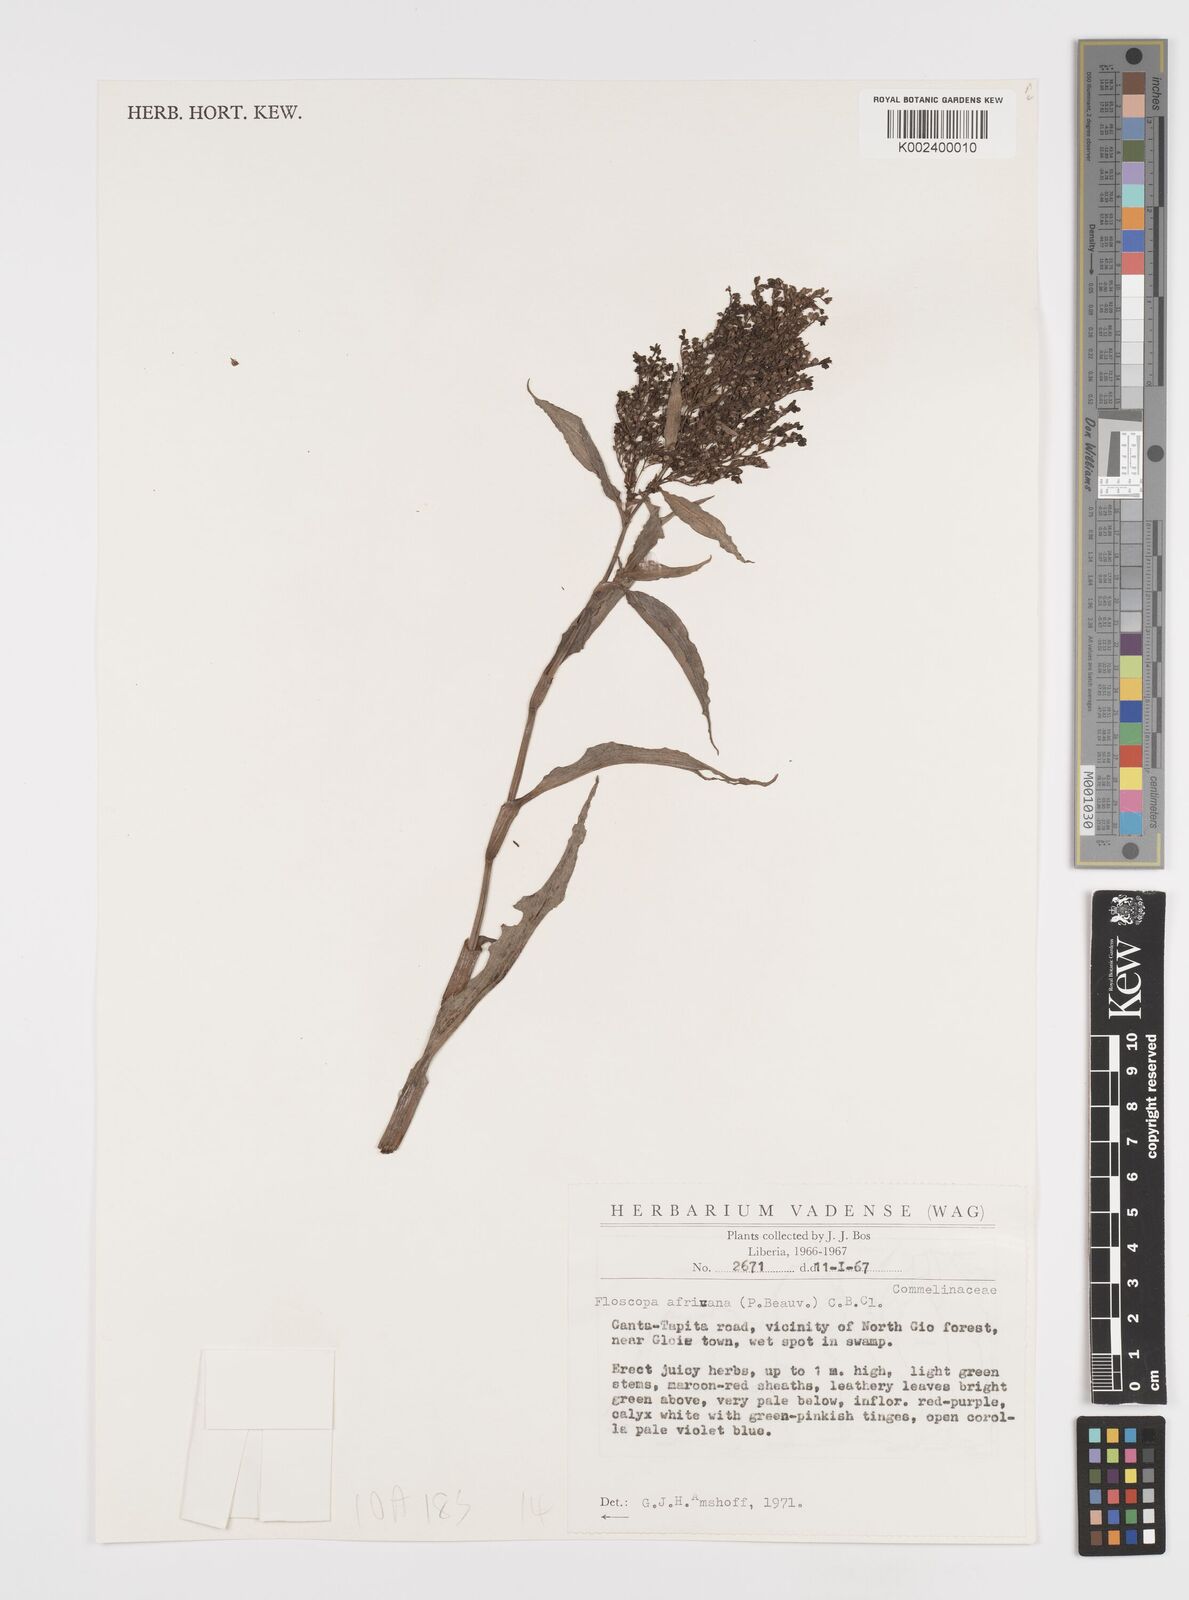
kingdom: Plantae
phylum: Tracheophyta
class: Liliopsida
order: Commelinales
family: Commelinaceae
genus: Floscopa
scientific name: Floscopa africana
